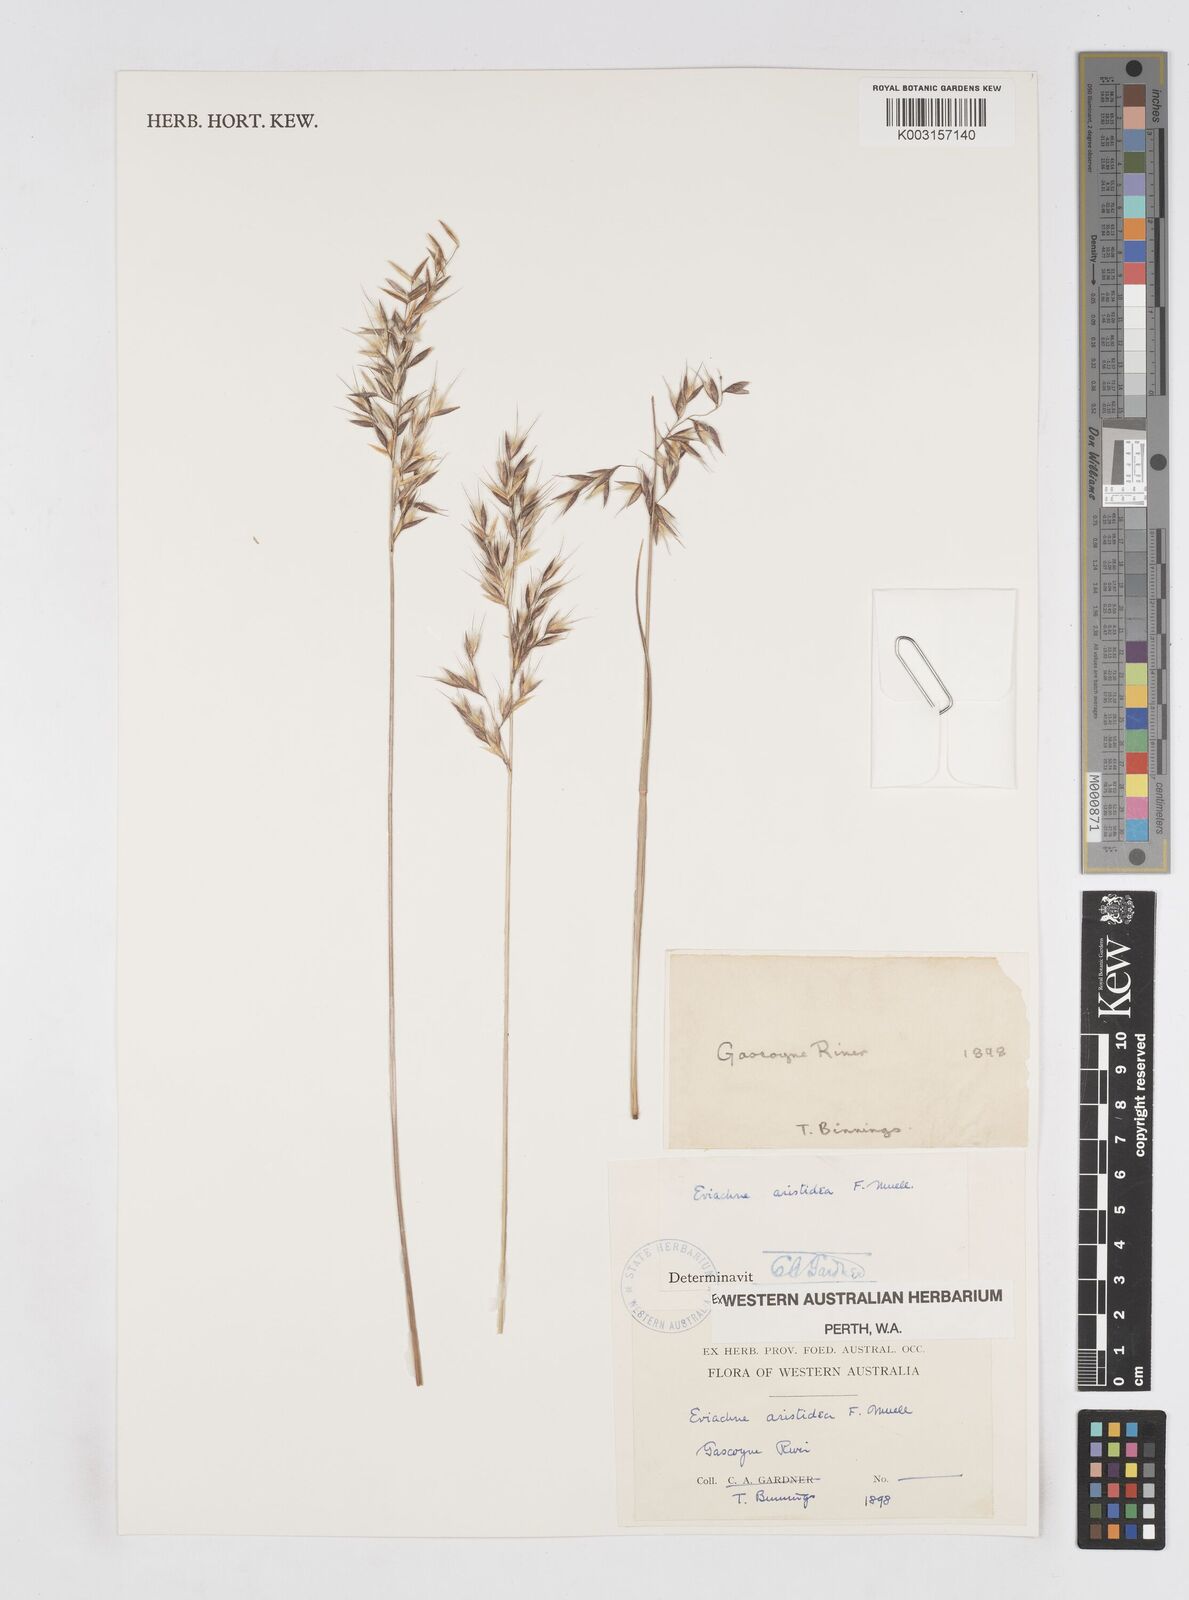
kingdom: Plantae
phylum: Tracheophyta
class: Liliopsida
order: Poales
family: Poaceae
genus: Eriachne
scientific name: Eriachne aristidea
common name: Three-awn wanderrie grass
